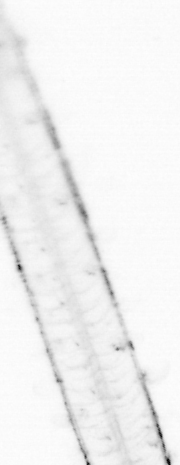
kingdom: Animalia
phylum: Chaetognatha
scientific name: Chaetognatha
